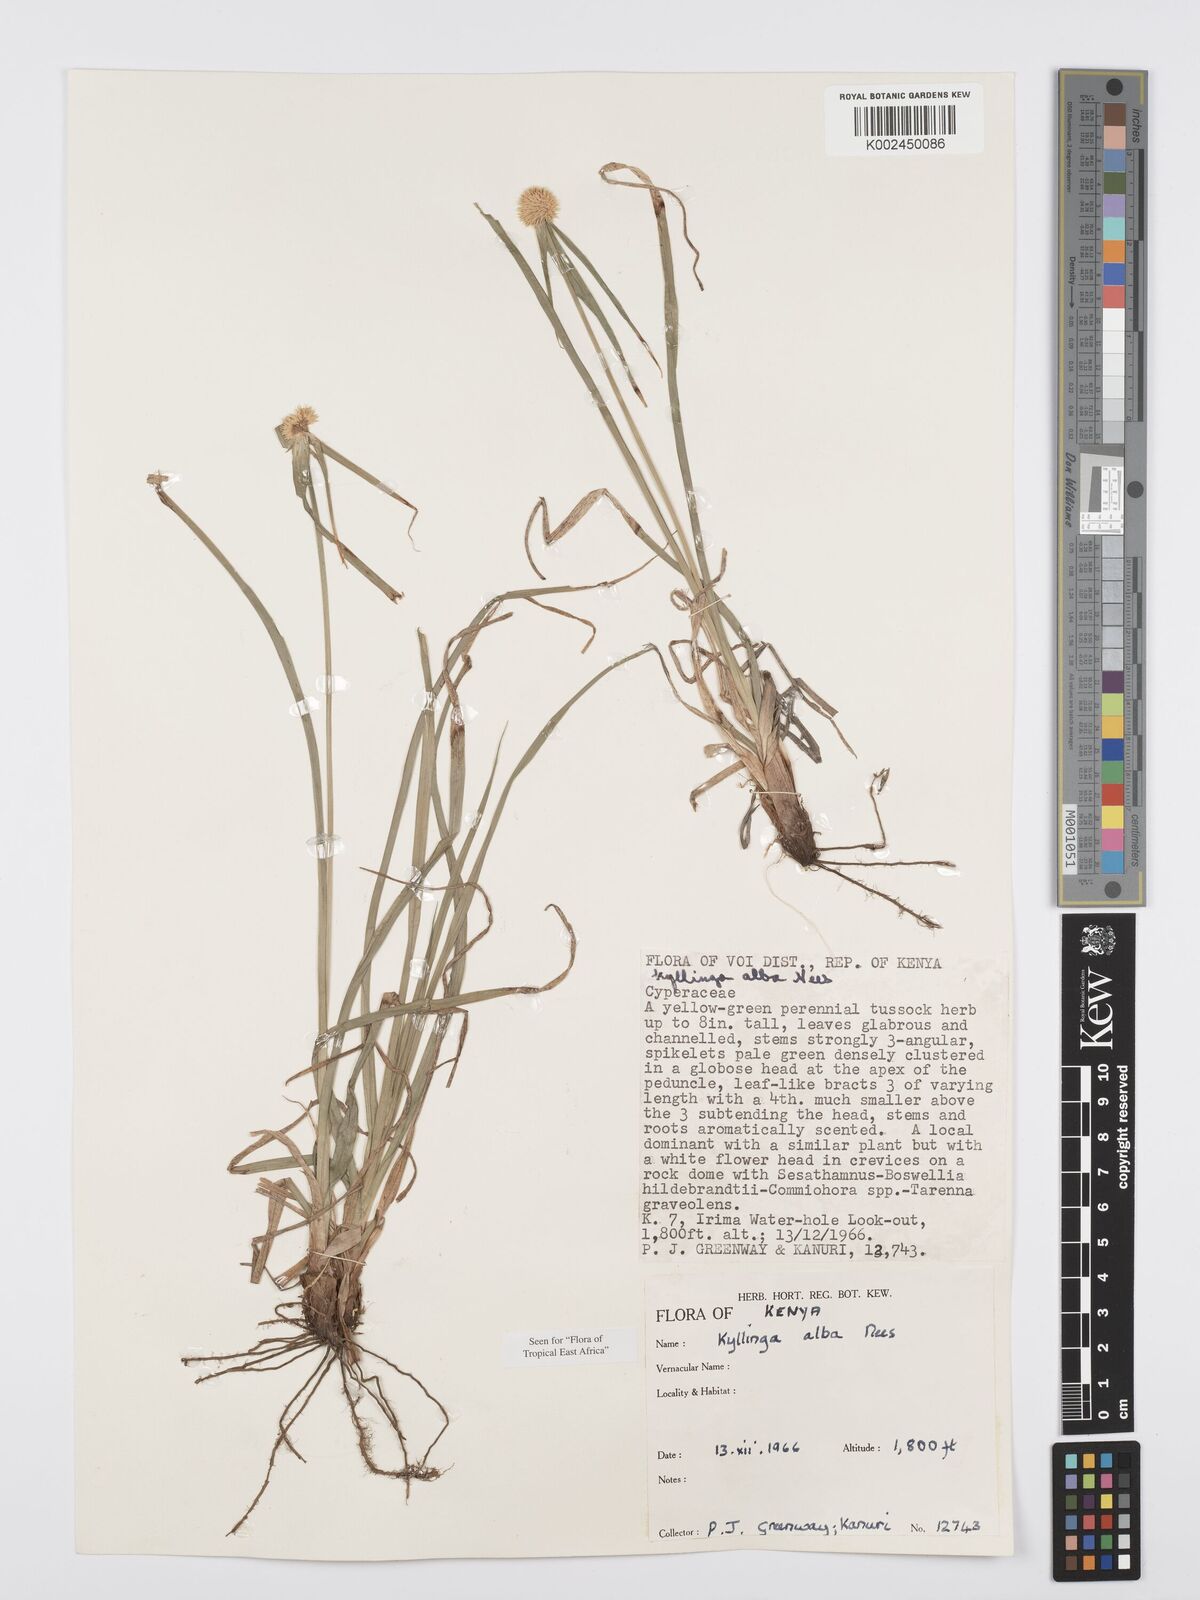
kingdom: Plantae
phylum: Tracheophyta
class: Liliopsida
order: Poales
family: Cyperaceae
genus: Cyperus
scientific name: Cyperus
